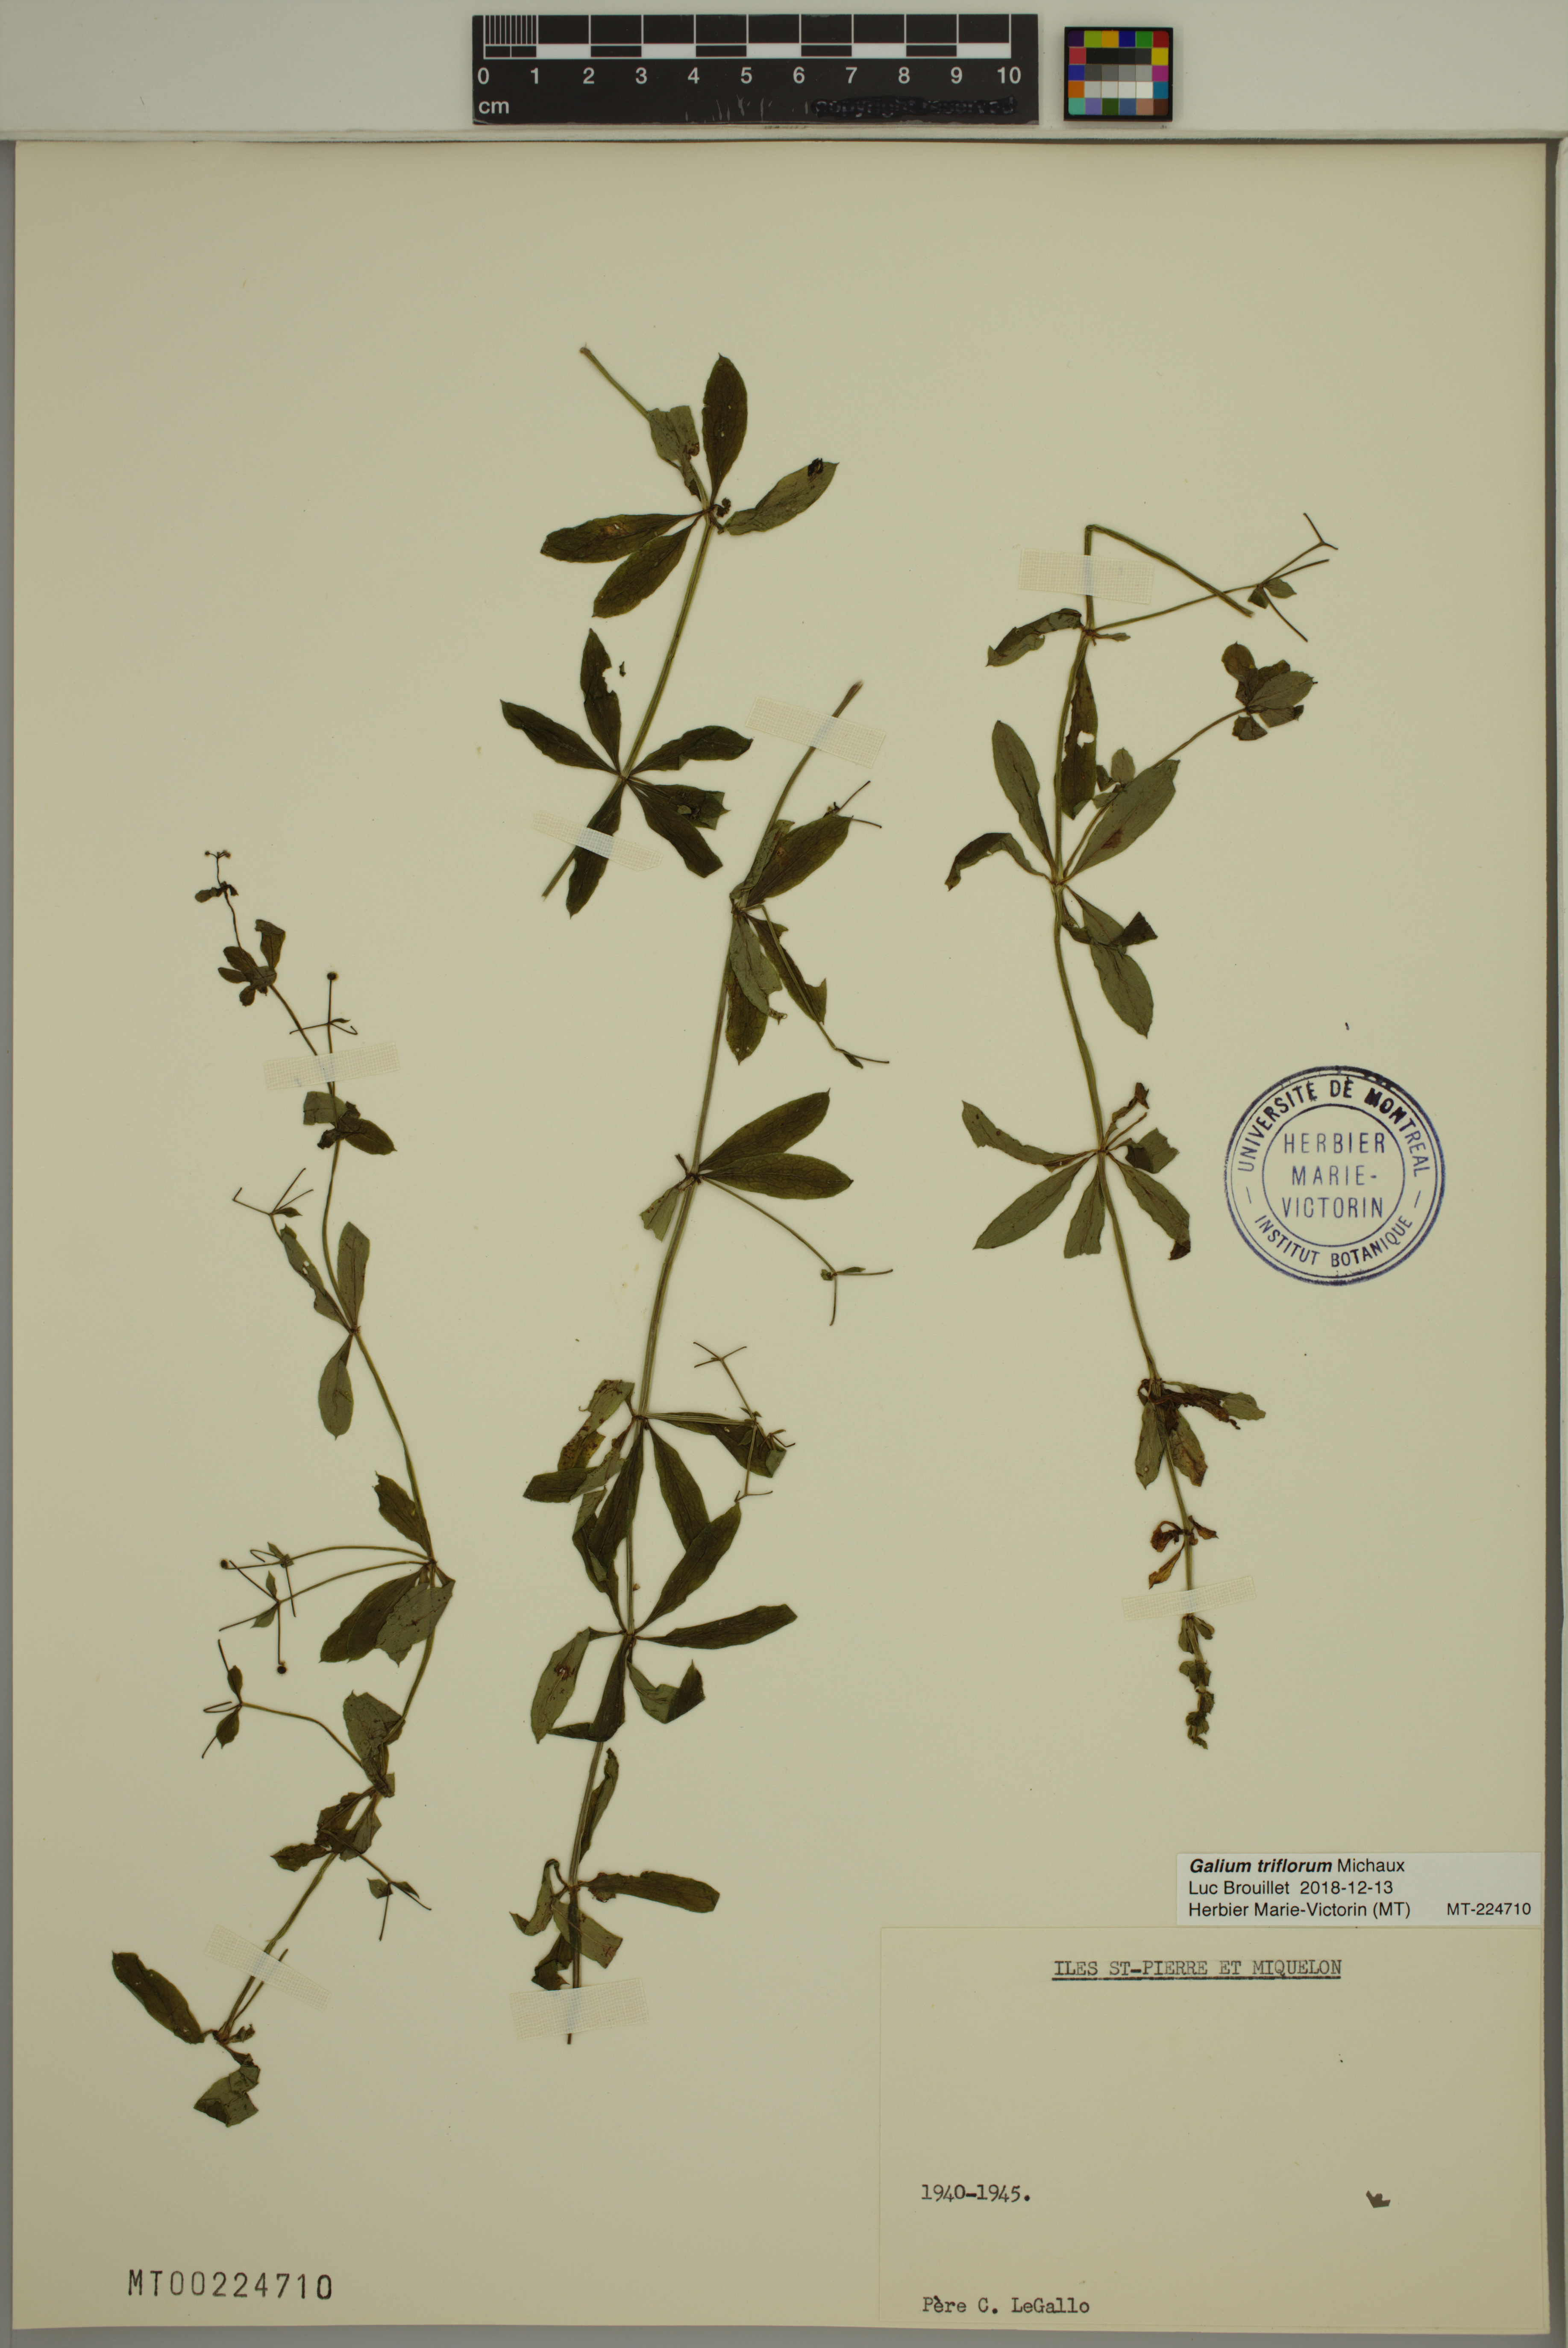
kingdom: Plantae
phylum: Tracheophyta
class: Magnoliopsida
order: Gentianales
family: Rubiaceae
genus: Galium
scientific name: Galium triflorum
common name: Fragrant bedstraw
